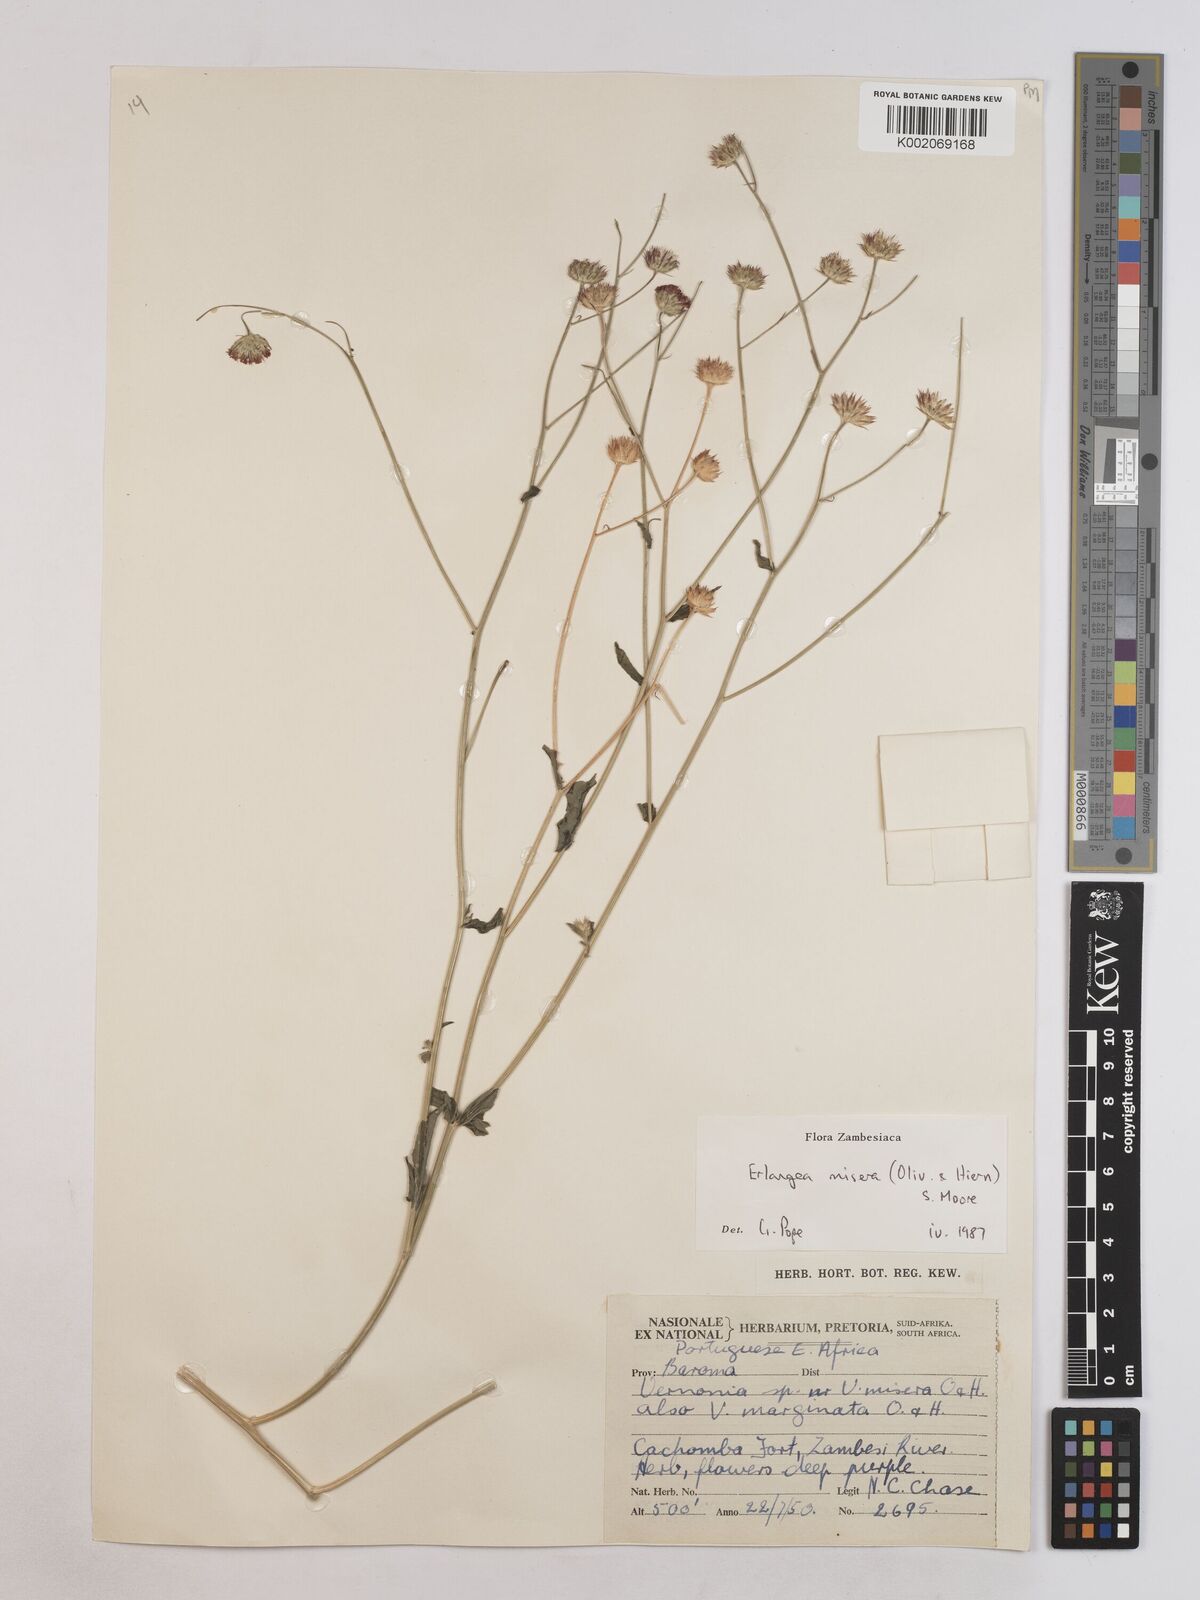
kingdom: Plantae
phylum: Tracheophyta
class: Magnoliopsida
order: Asterales
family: Asteraceae
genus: Erlangea
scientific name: Erlangea misera
